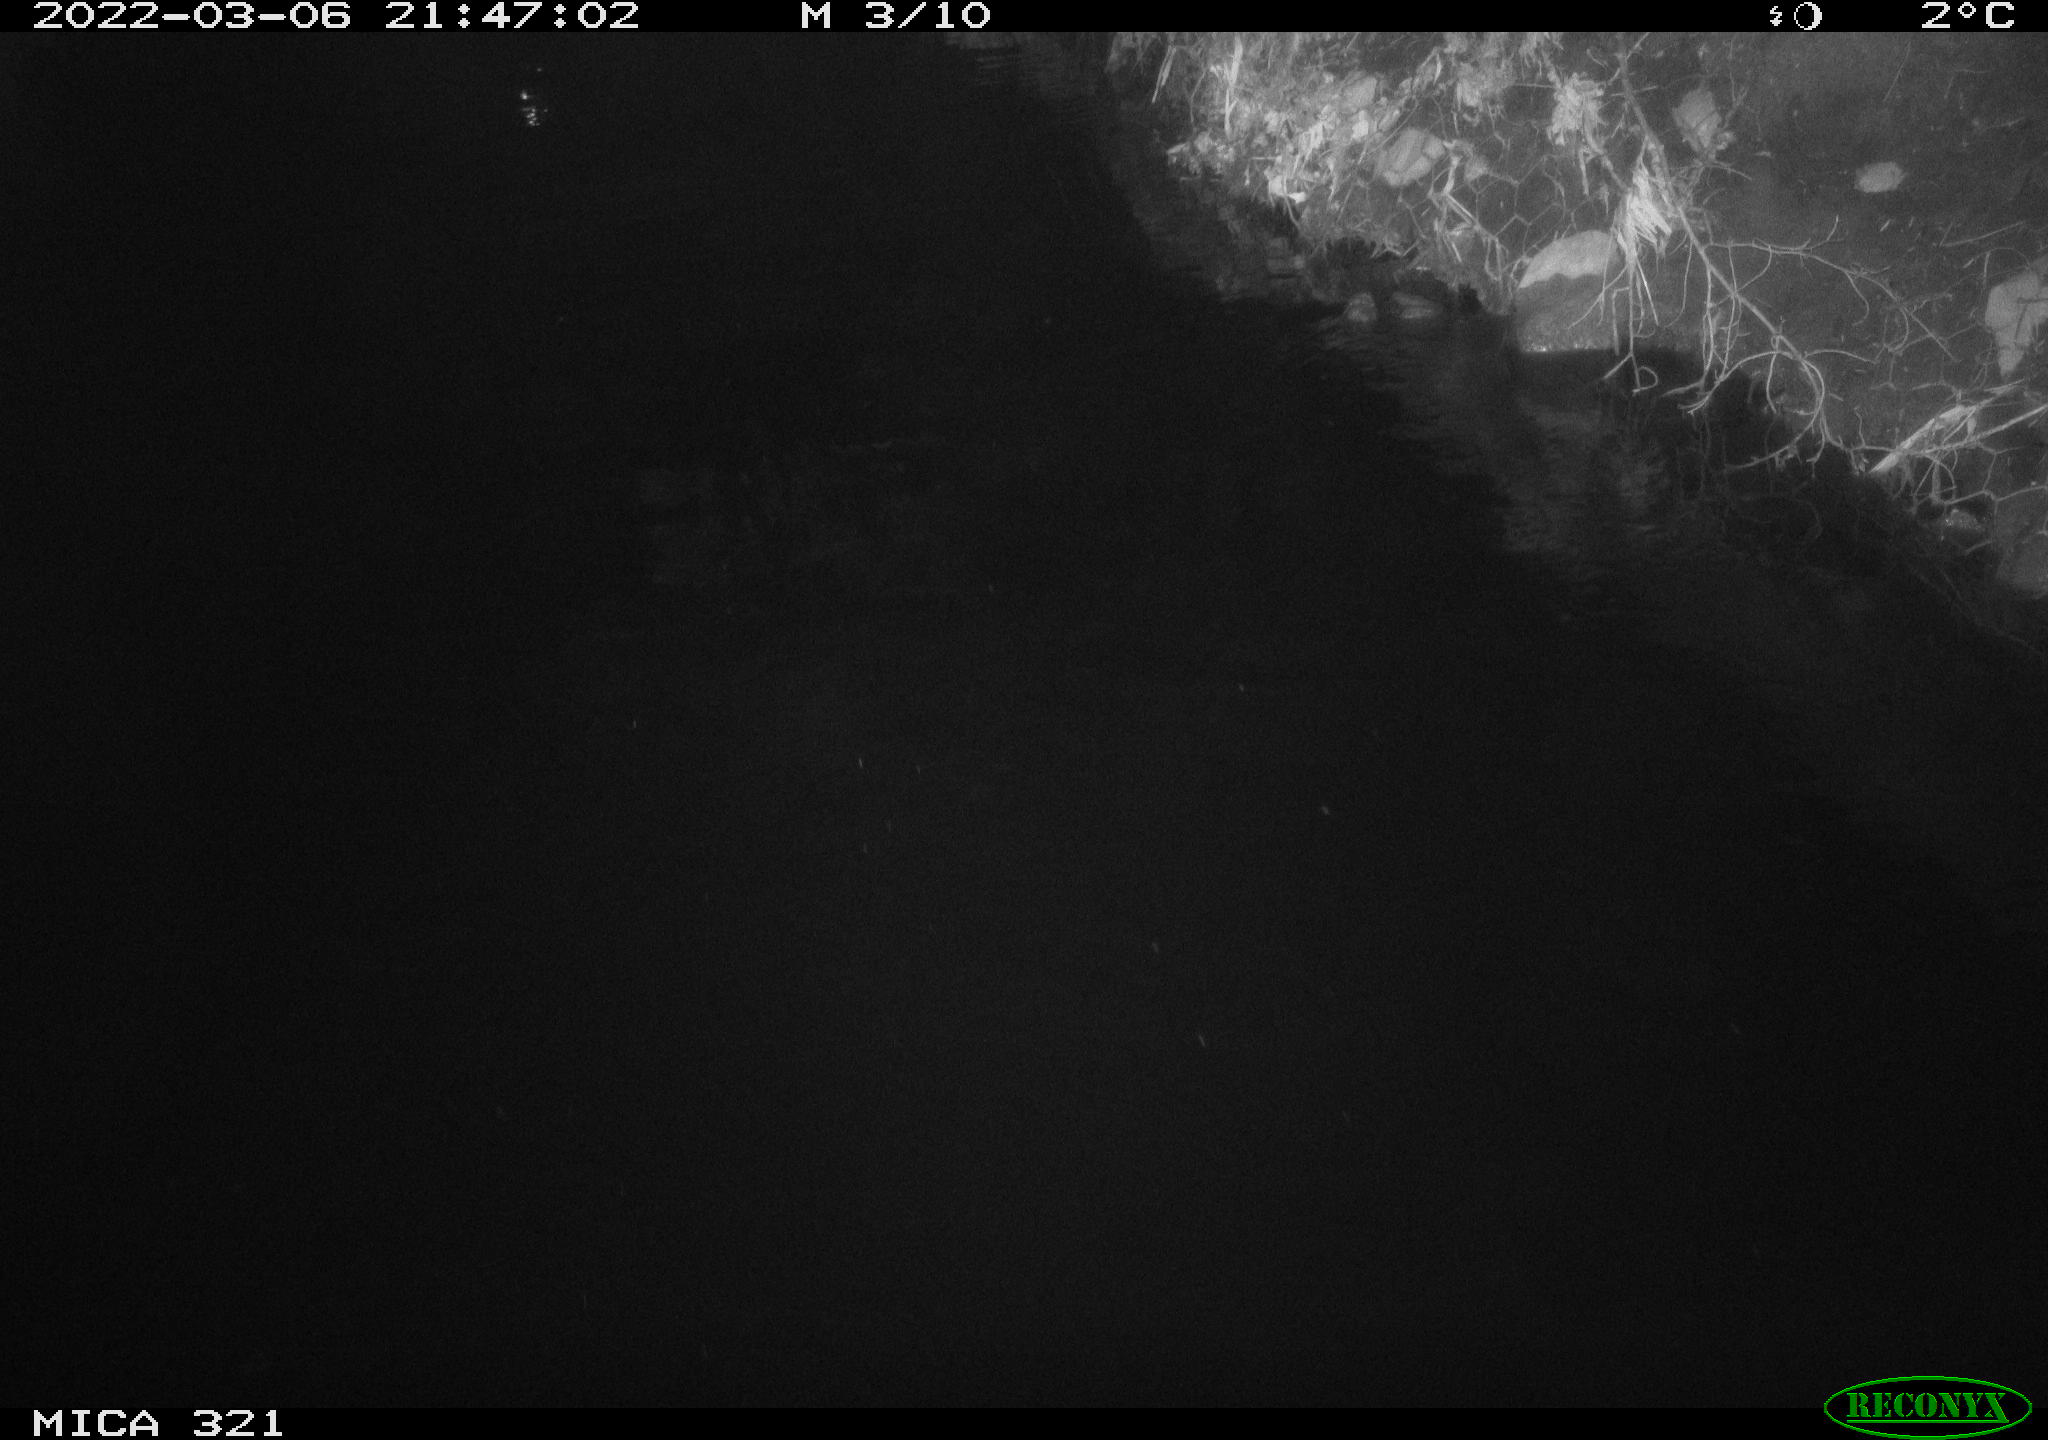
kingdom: Animalia
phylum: Chordata
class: Aves
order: Anseriformes
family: Anatidae
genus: Anas
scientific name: Anas platyrhynchos
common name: Mallard
